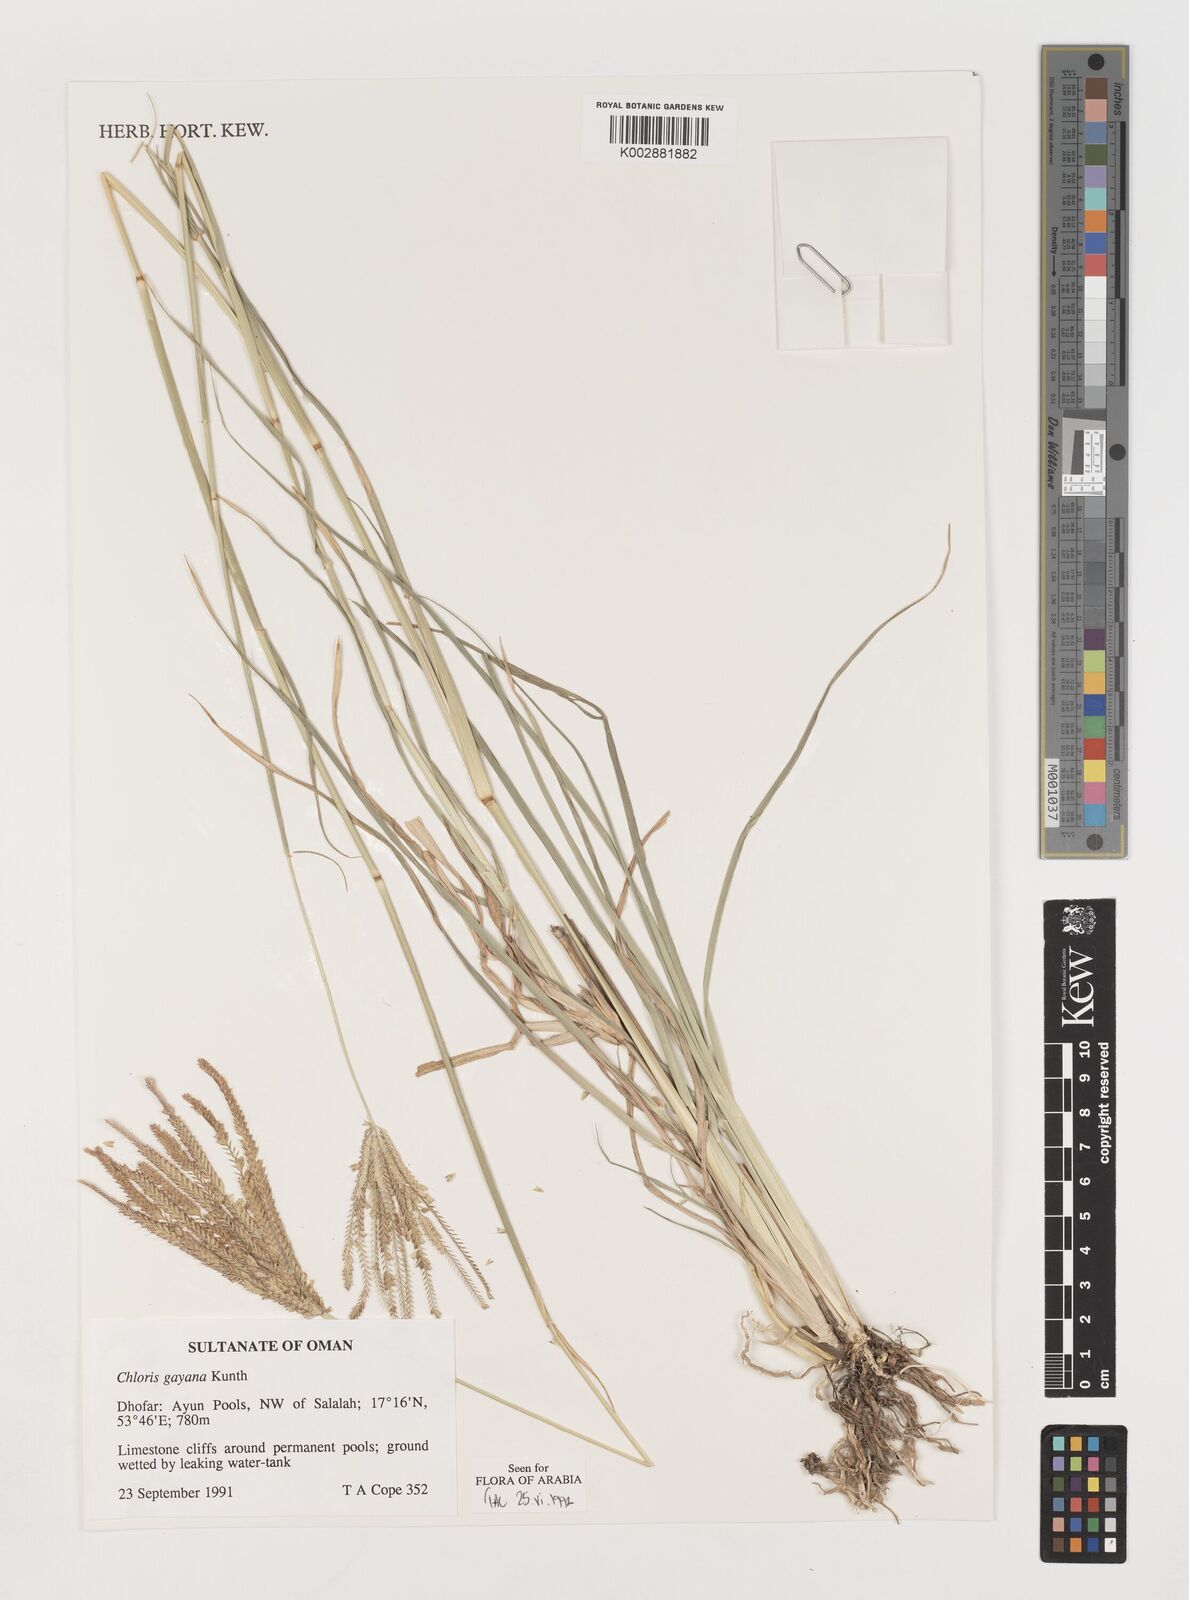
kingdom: Plantae
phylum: Tracheophyta
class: Liliopsida
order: Poales
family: Poaceae
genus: Chloris
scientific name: Chloris gayana
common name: Rhodes grass
